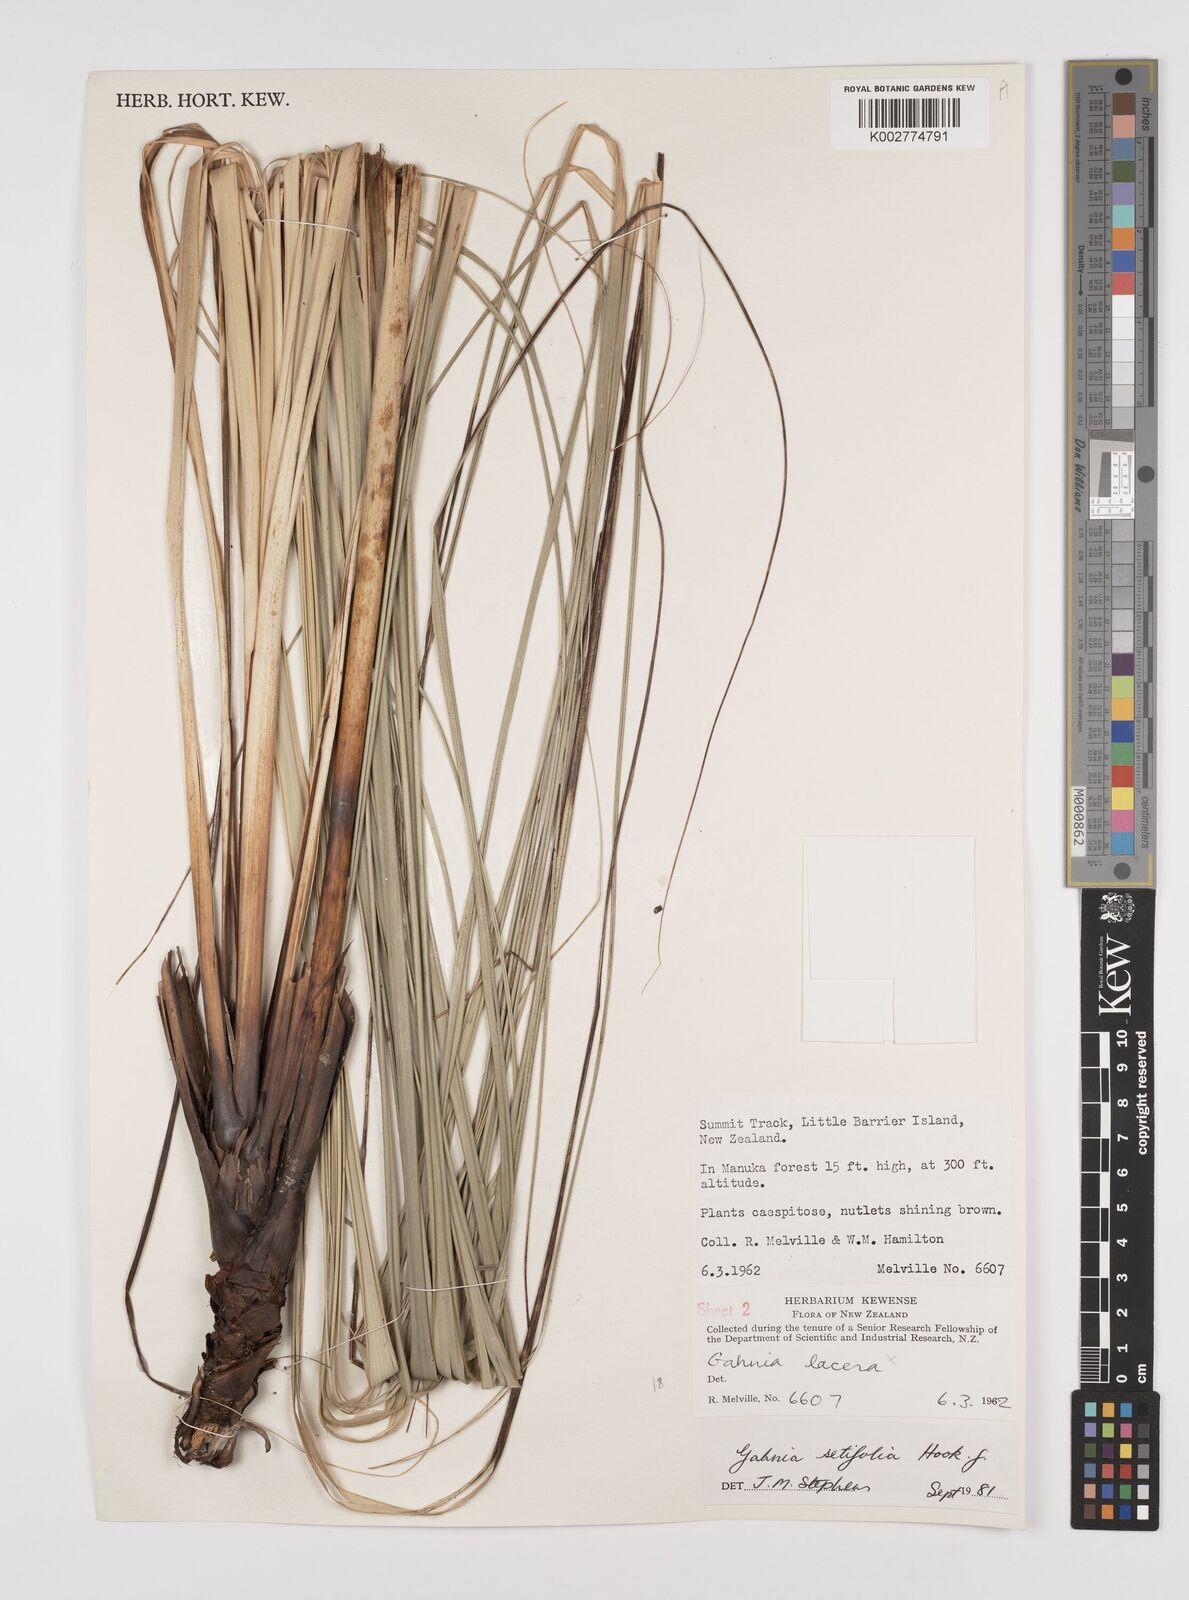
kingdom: Plantae
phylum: Tracheophyta
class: Liliopsida
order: Poales
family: Cyperaceae
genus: Gahnia
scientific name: Gahnia setifolia
